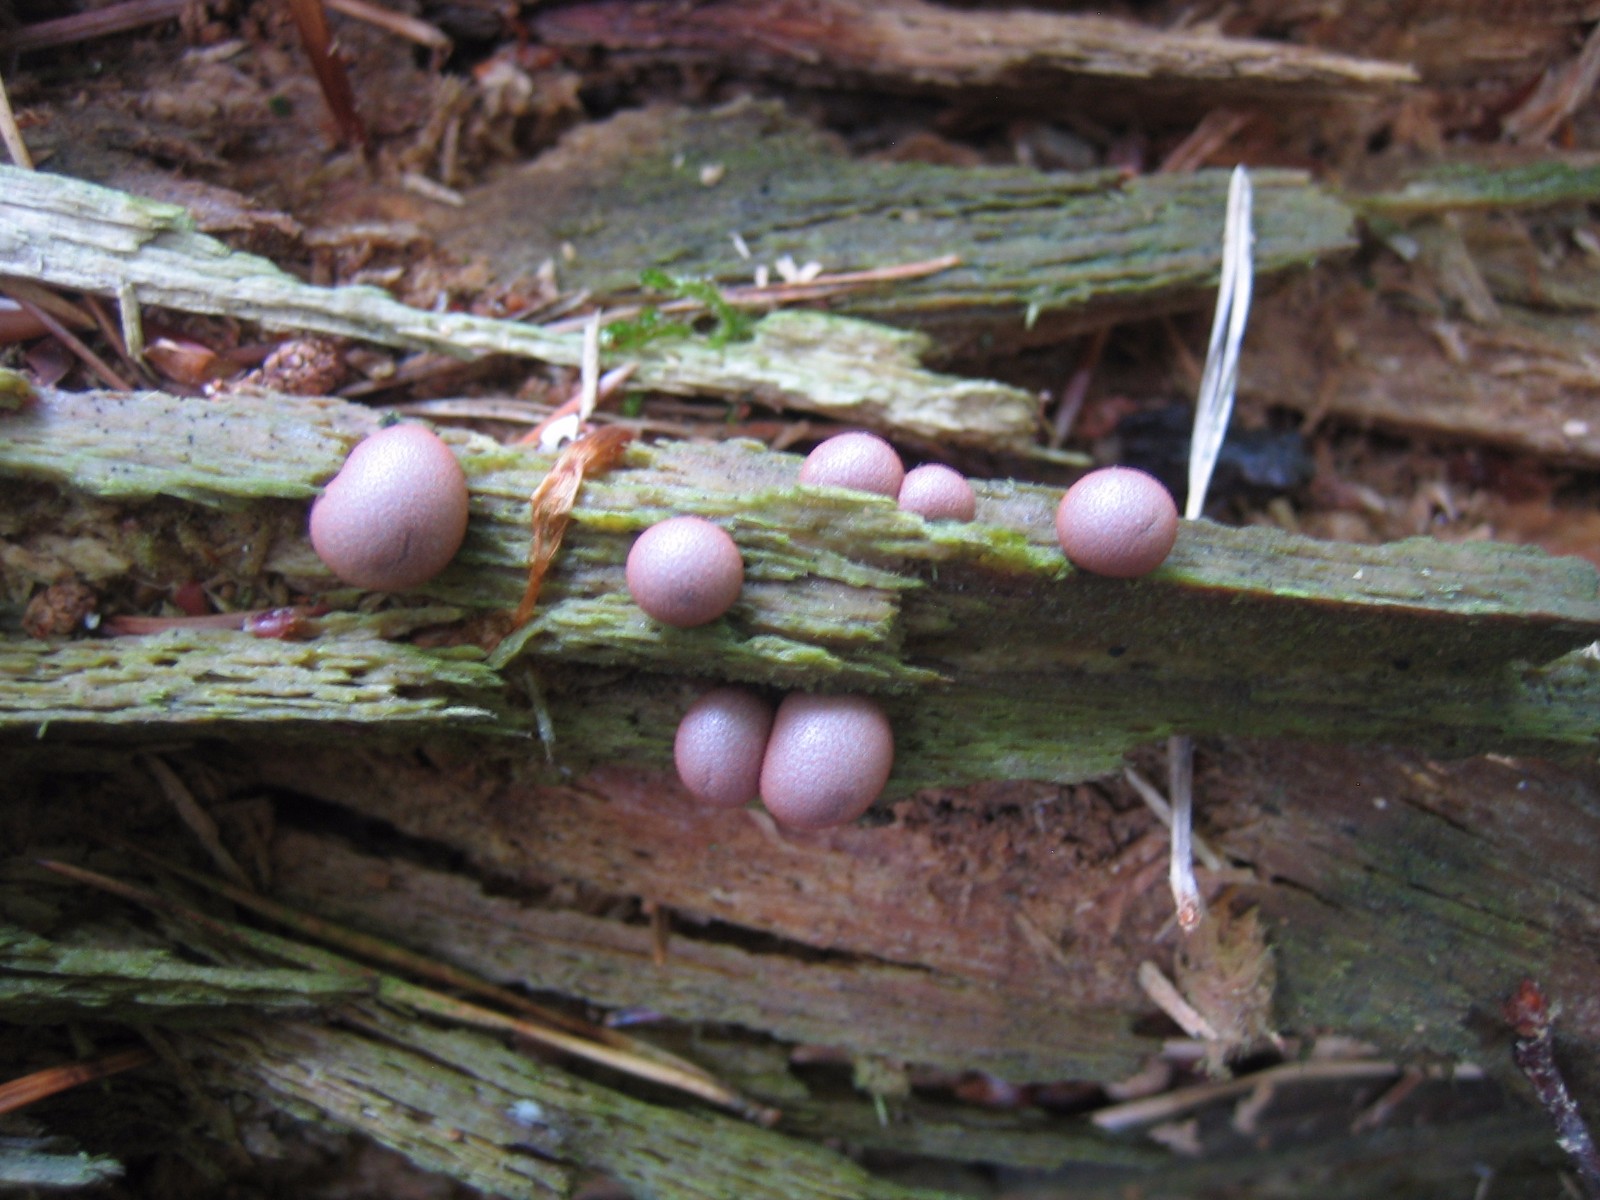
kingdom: Protozoa
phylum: Mycetozoa
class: Myxomycetes
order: Cribrariales
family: Tubiferaceae
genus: Lycogala
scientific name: Lycogala epidendrum
